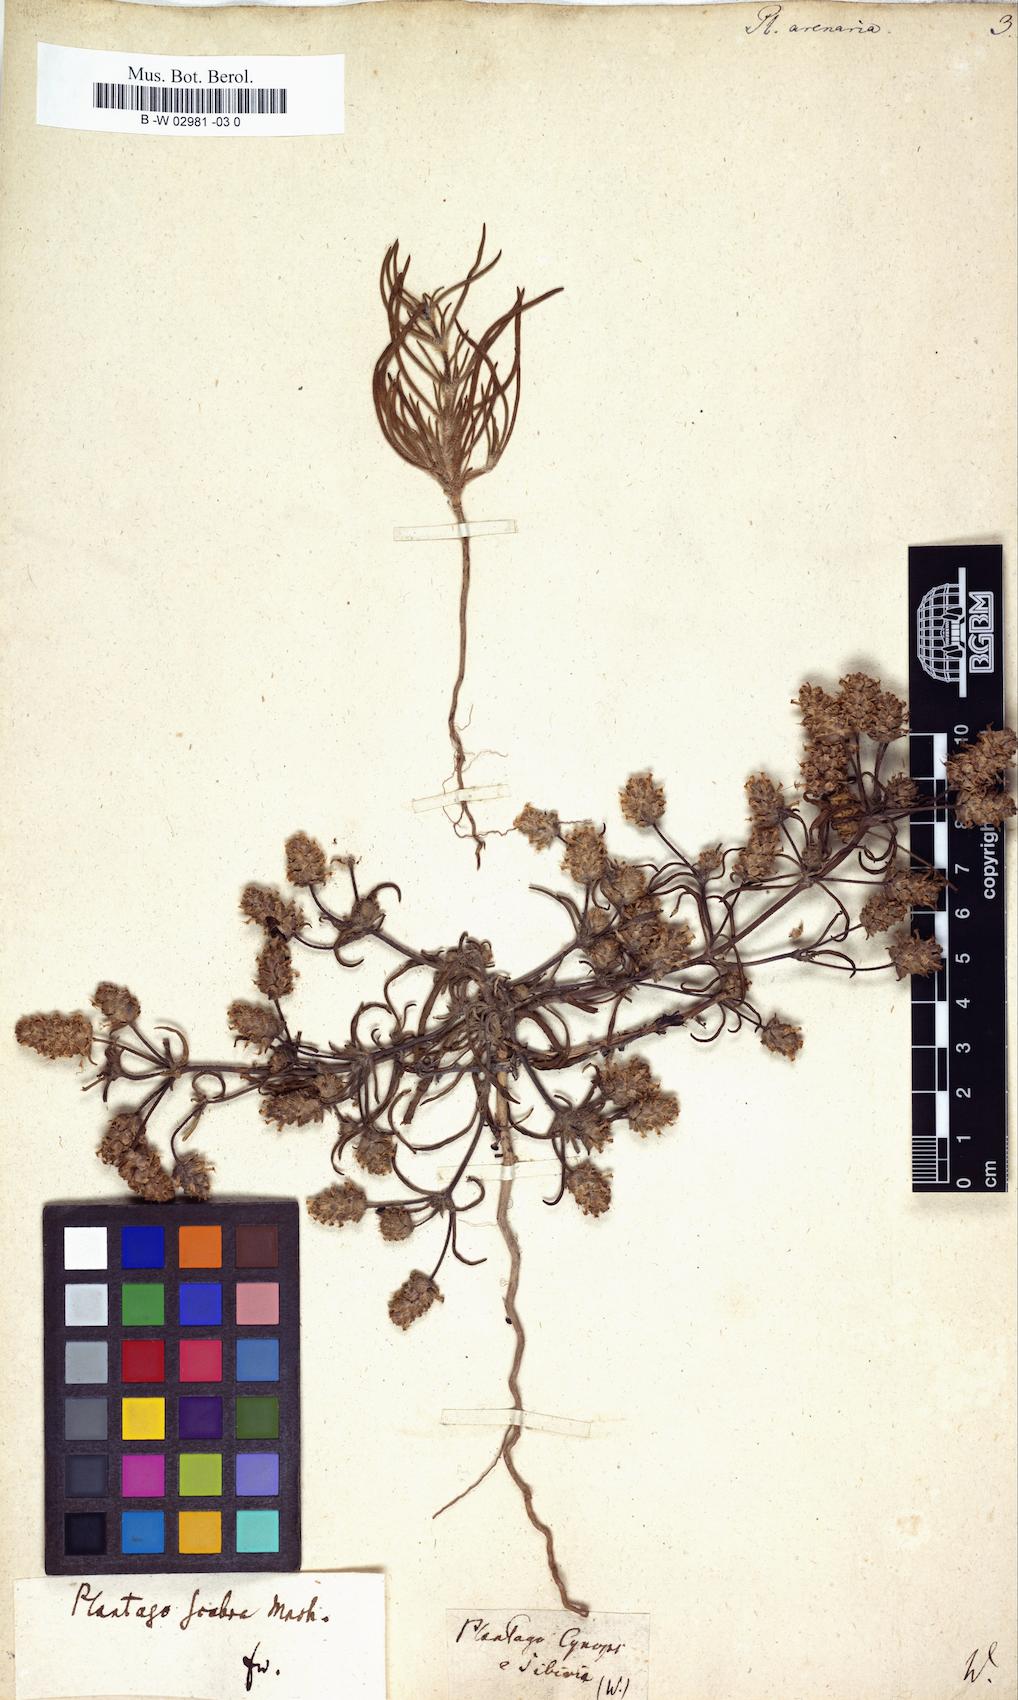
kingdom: Plantae
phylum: Tracheophyta
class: Magnoliopsida
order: Lamiales
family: Plantaginaceae
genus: Plantago
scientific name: Plantago arenaria
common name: Branched plantain
